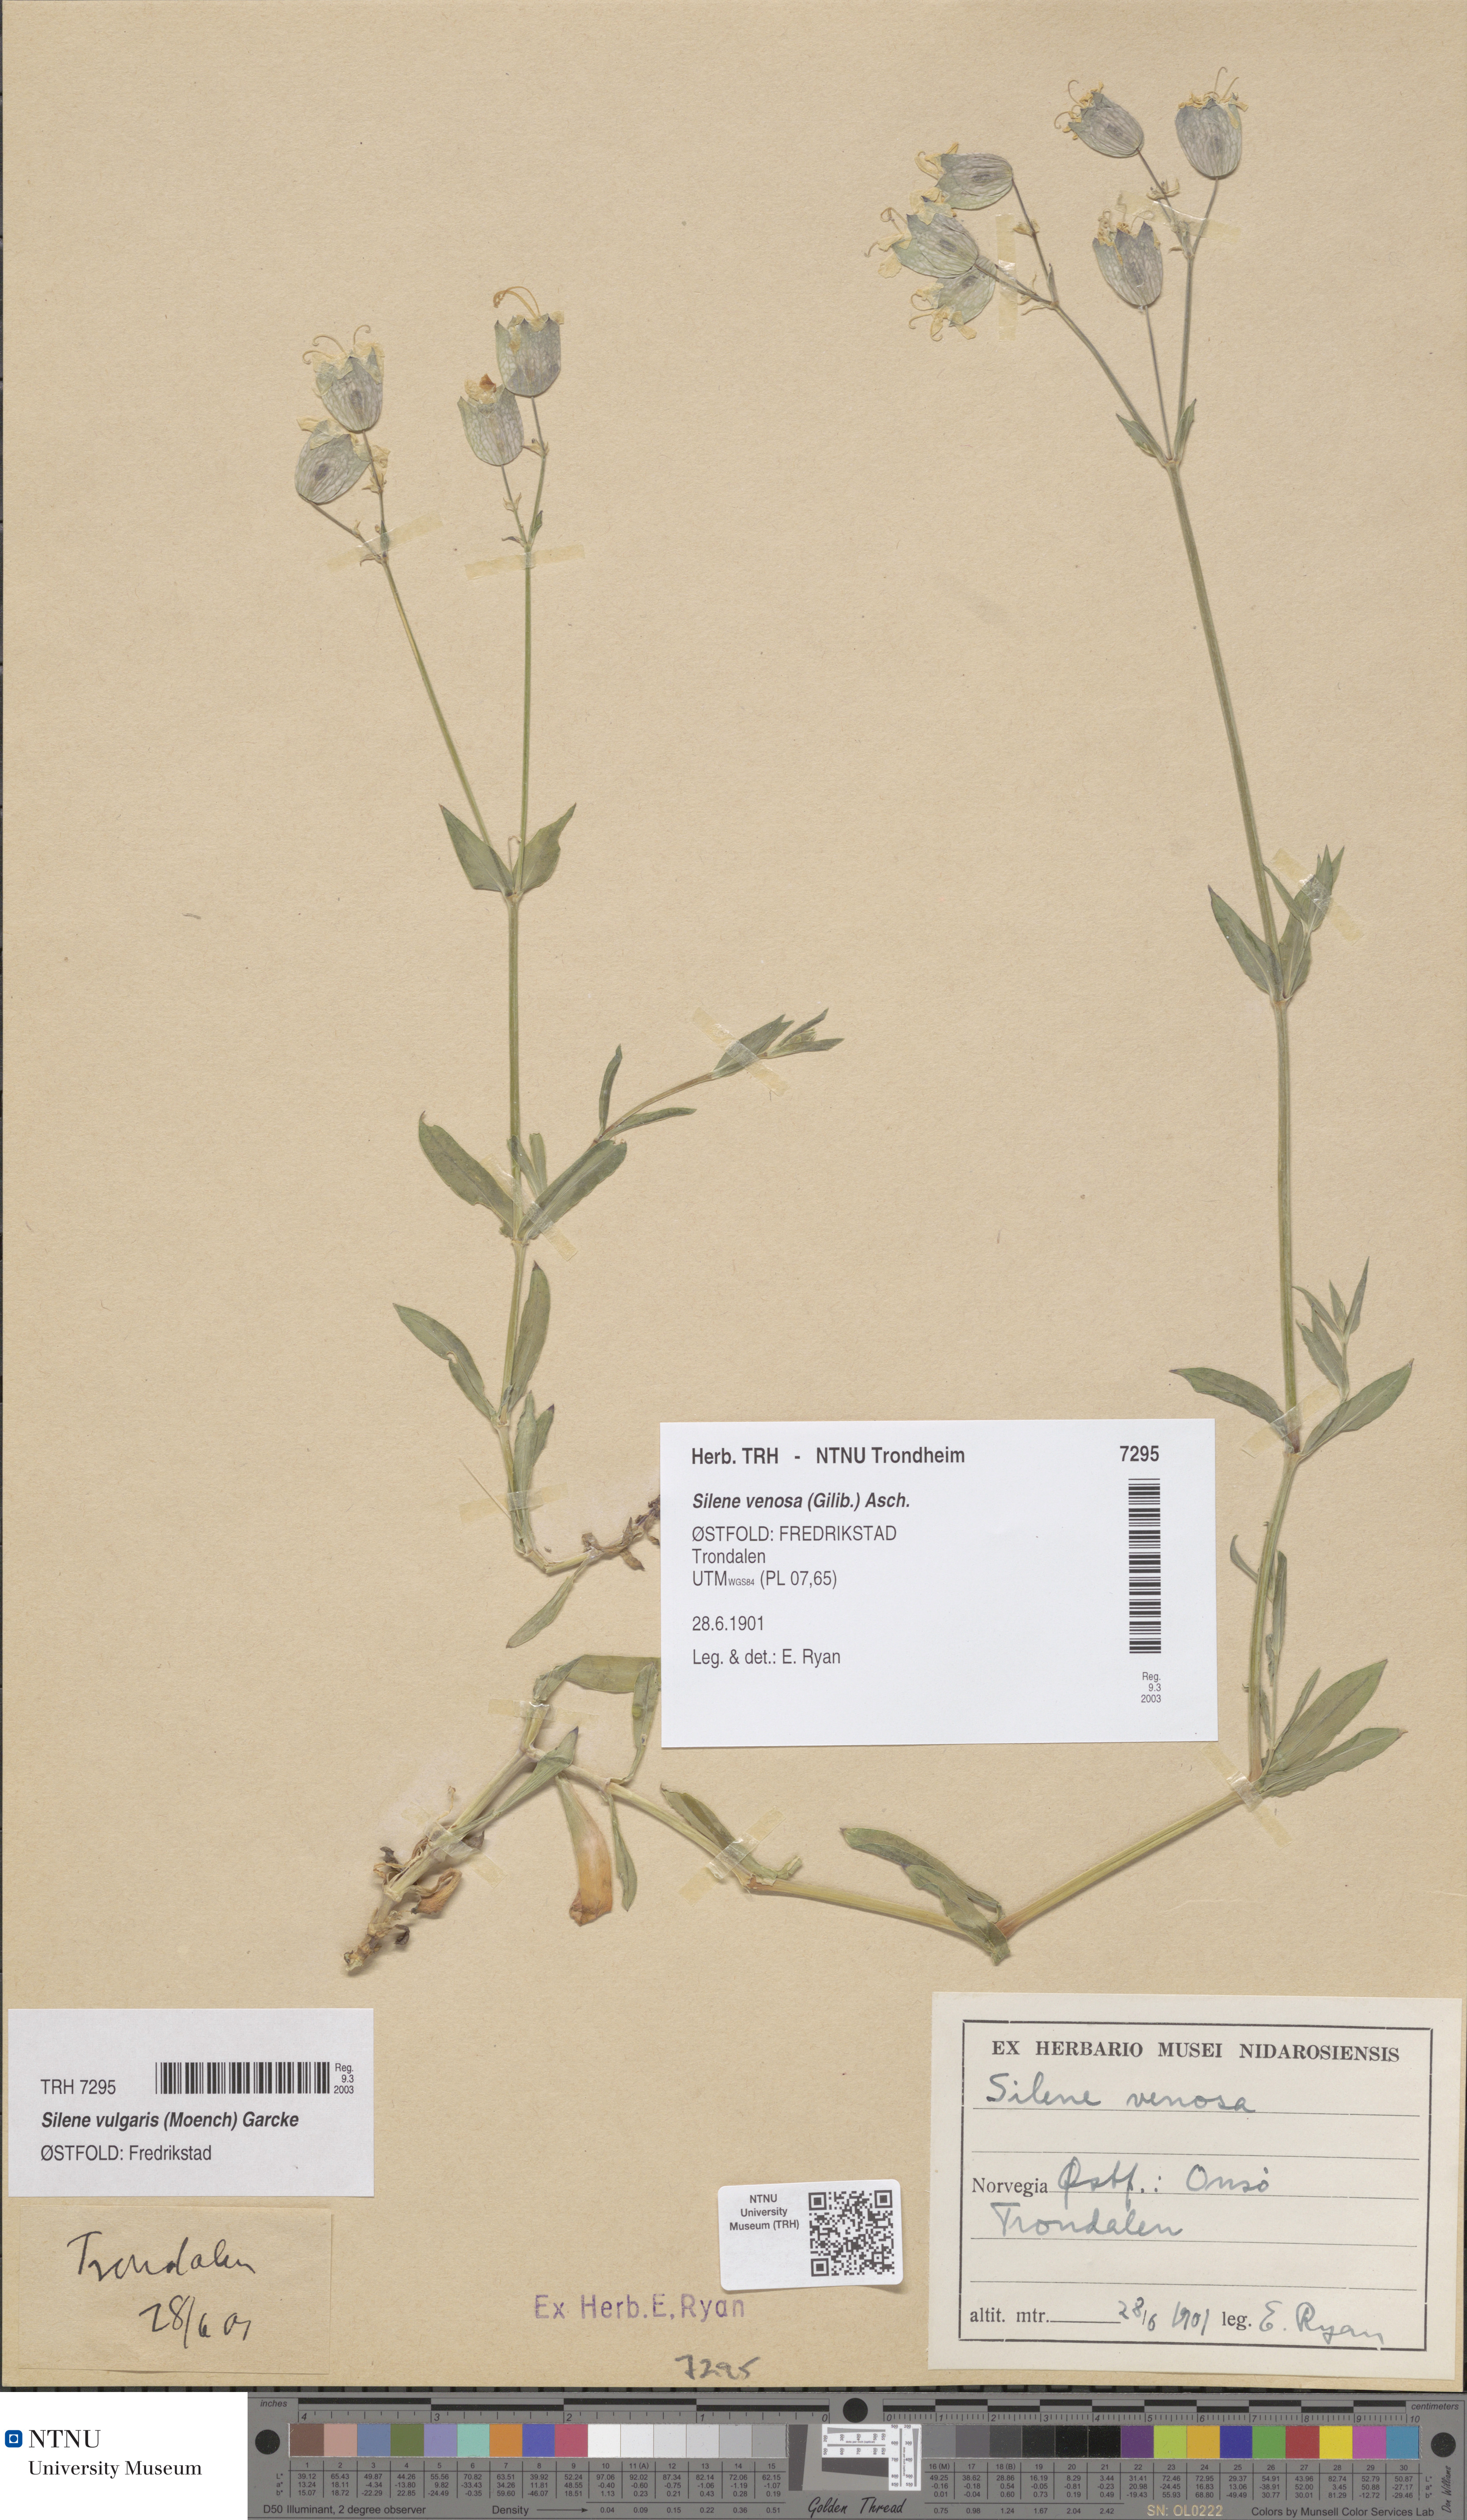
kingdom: Plantae
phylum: Tracheophyta
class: Magnoliopsida
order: Caryophyllales
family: Caryophyllaceae
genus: Silene
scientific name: Silene vulgaris
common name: Bladder campion
